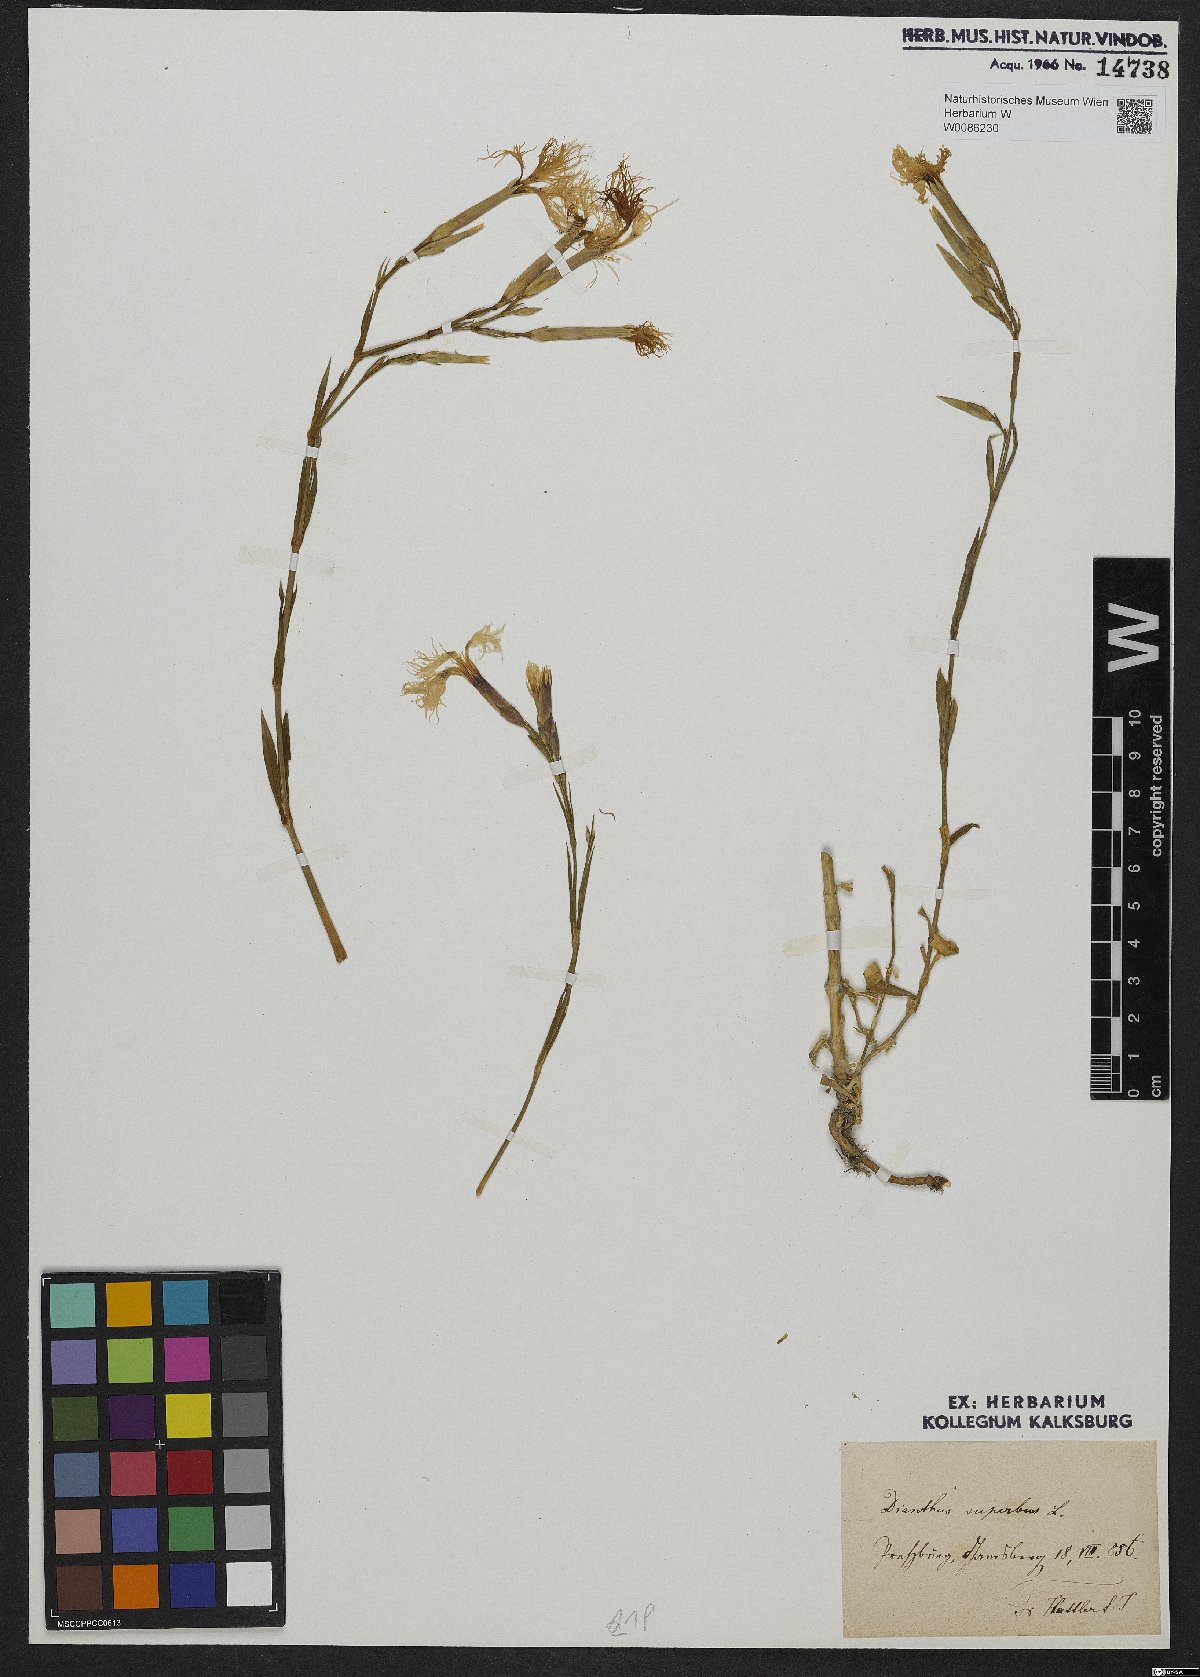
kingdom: Plantae
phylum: Tracheophyta
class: Magnoliopsida
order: Caryophyllales
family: Caryophyllaceae
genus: Dianthus
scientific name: Dianthus superbus
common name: Fringed pink
